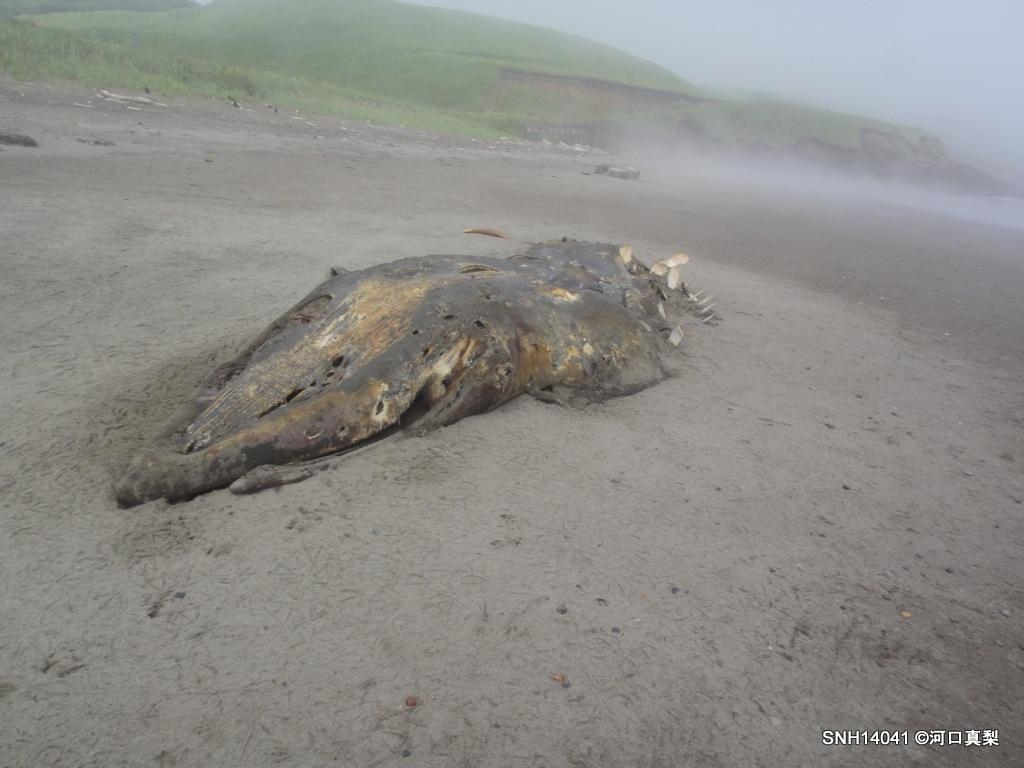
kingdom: Animalia
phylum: Chordata
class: Mammalia
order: Cetacea
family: Balaenopteridae
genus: Balaenoptera
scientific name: Balaenoptera acutorostrata
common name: Minke whale
